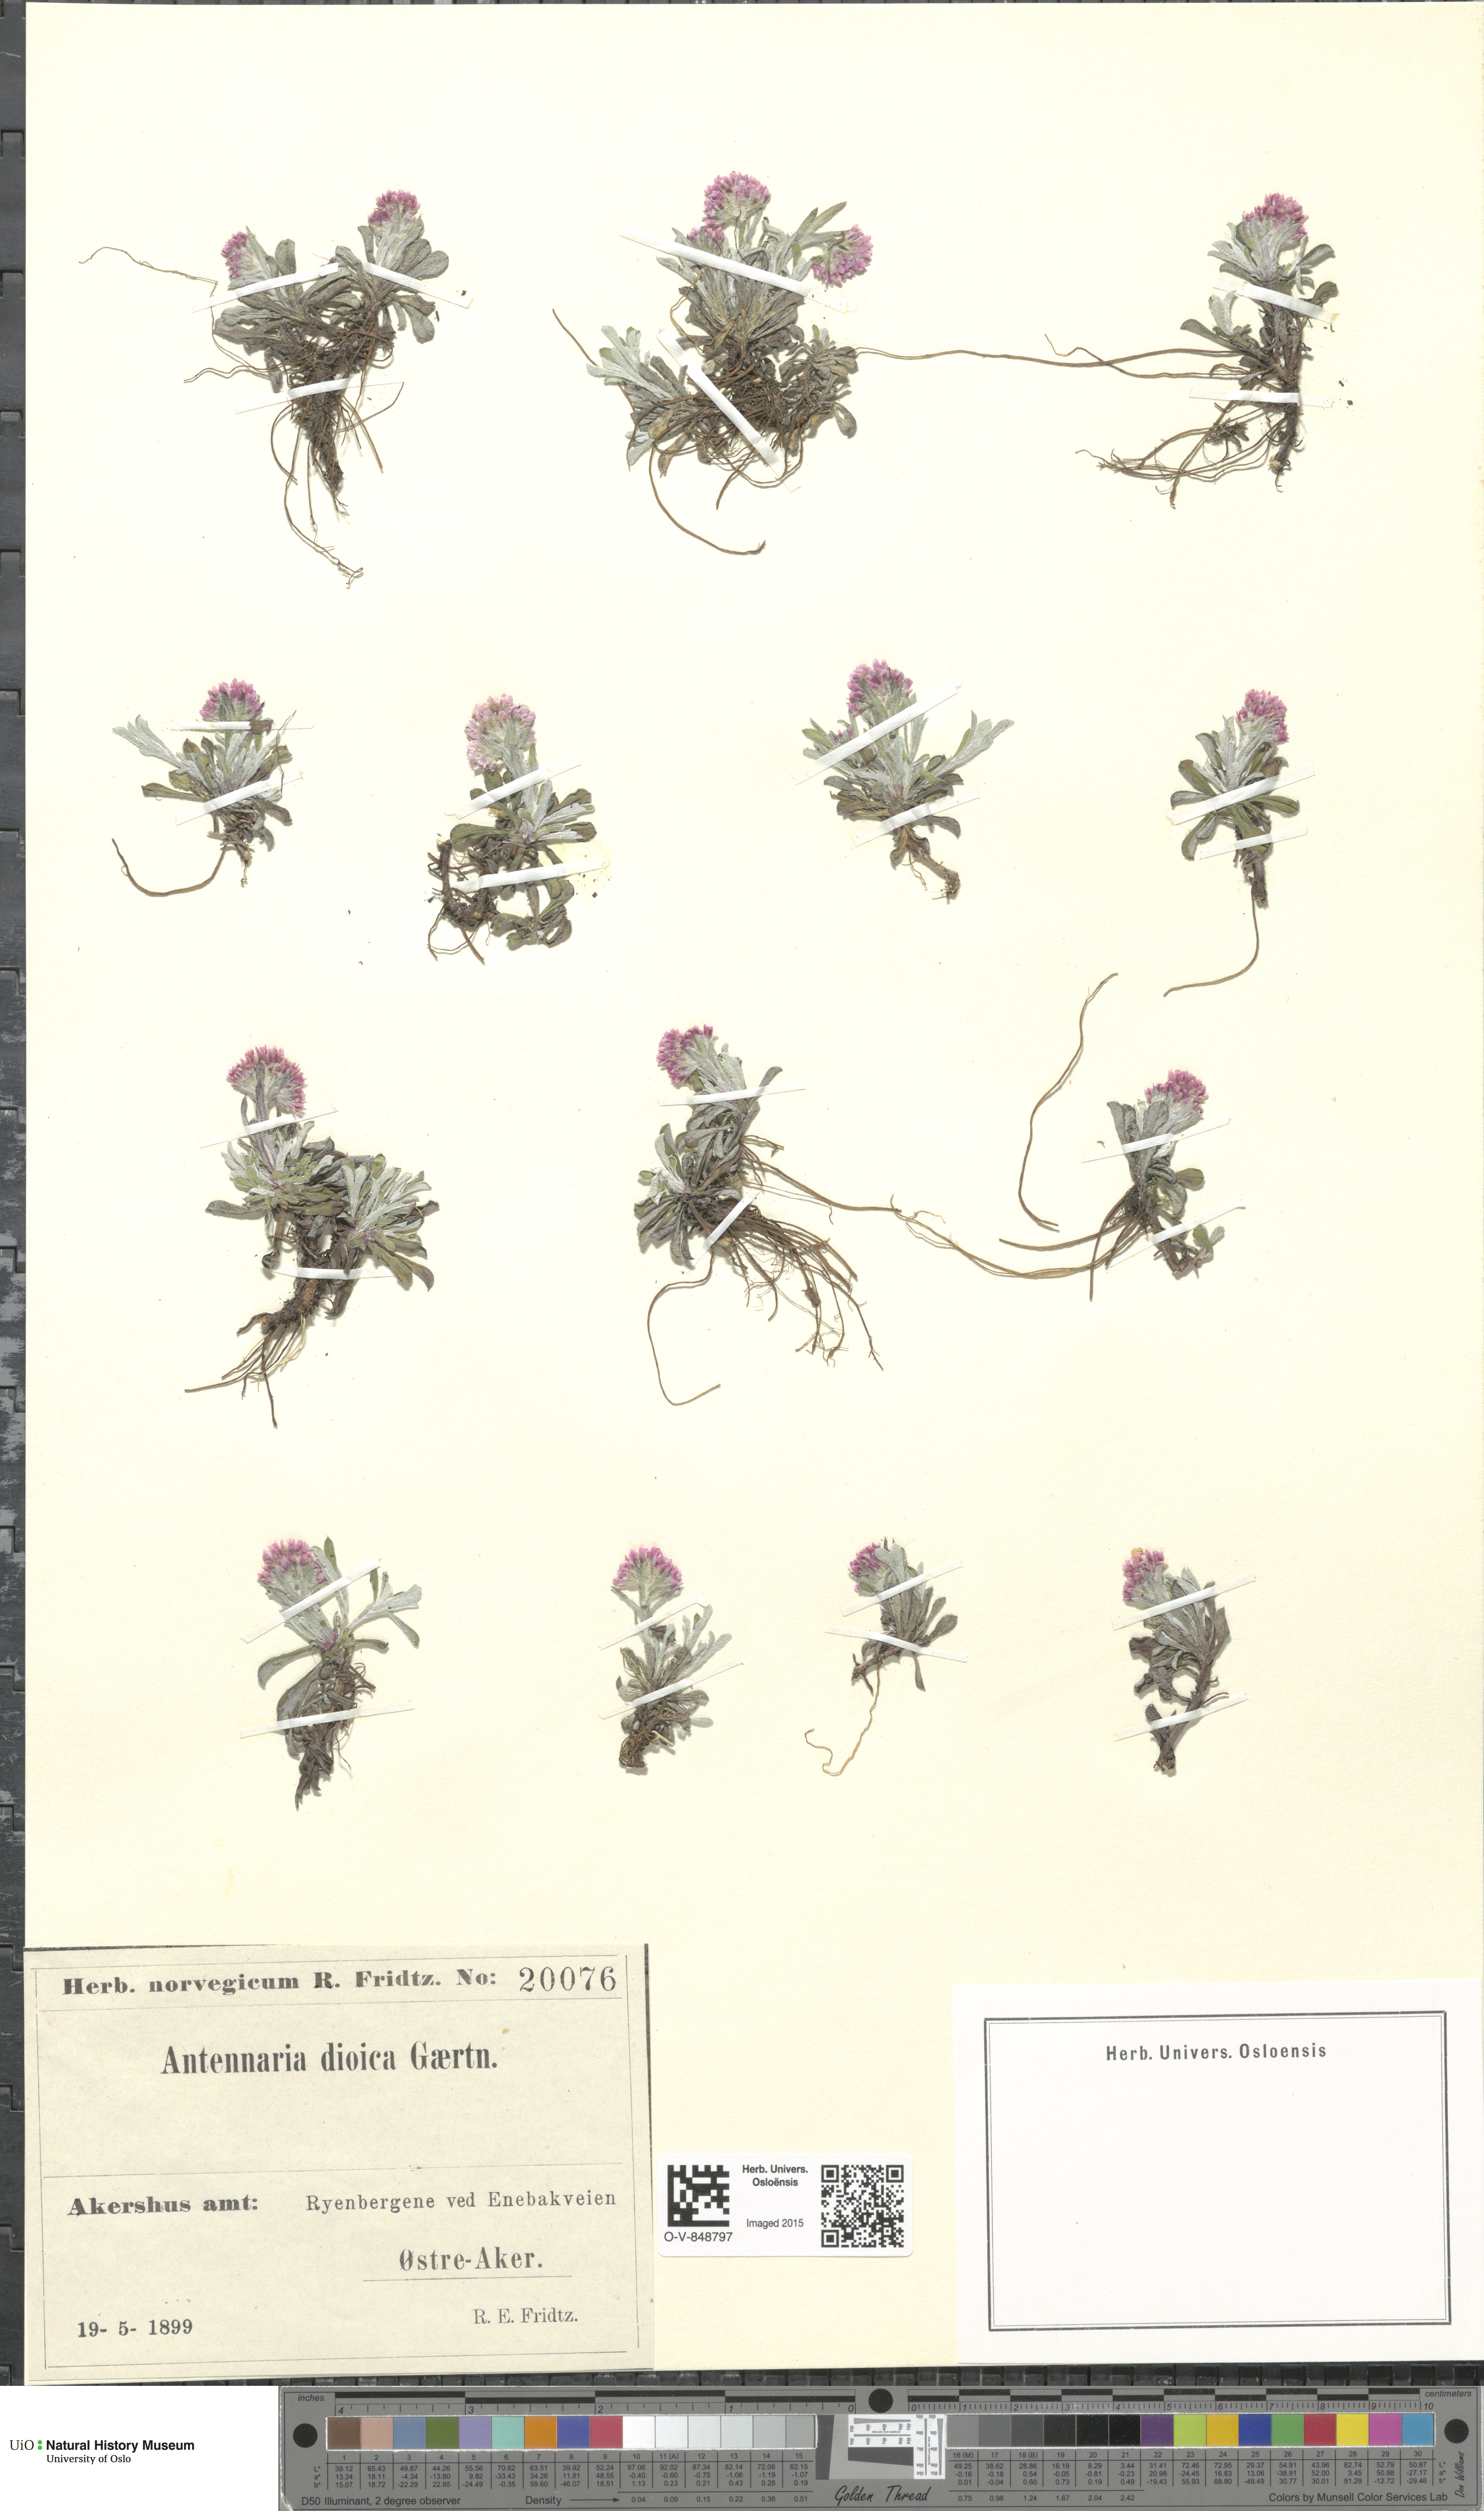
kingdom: Plantae
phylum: Tracheophyta
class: Magnoliopsida
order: Asterales
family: Asteraceae
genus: Antennaria
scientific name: Antennaria dioica
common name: Mountain everlasting
